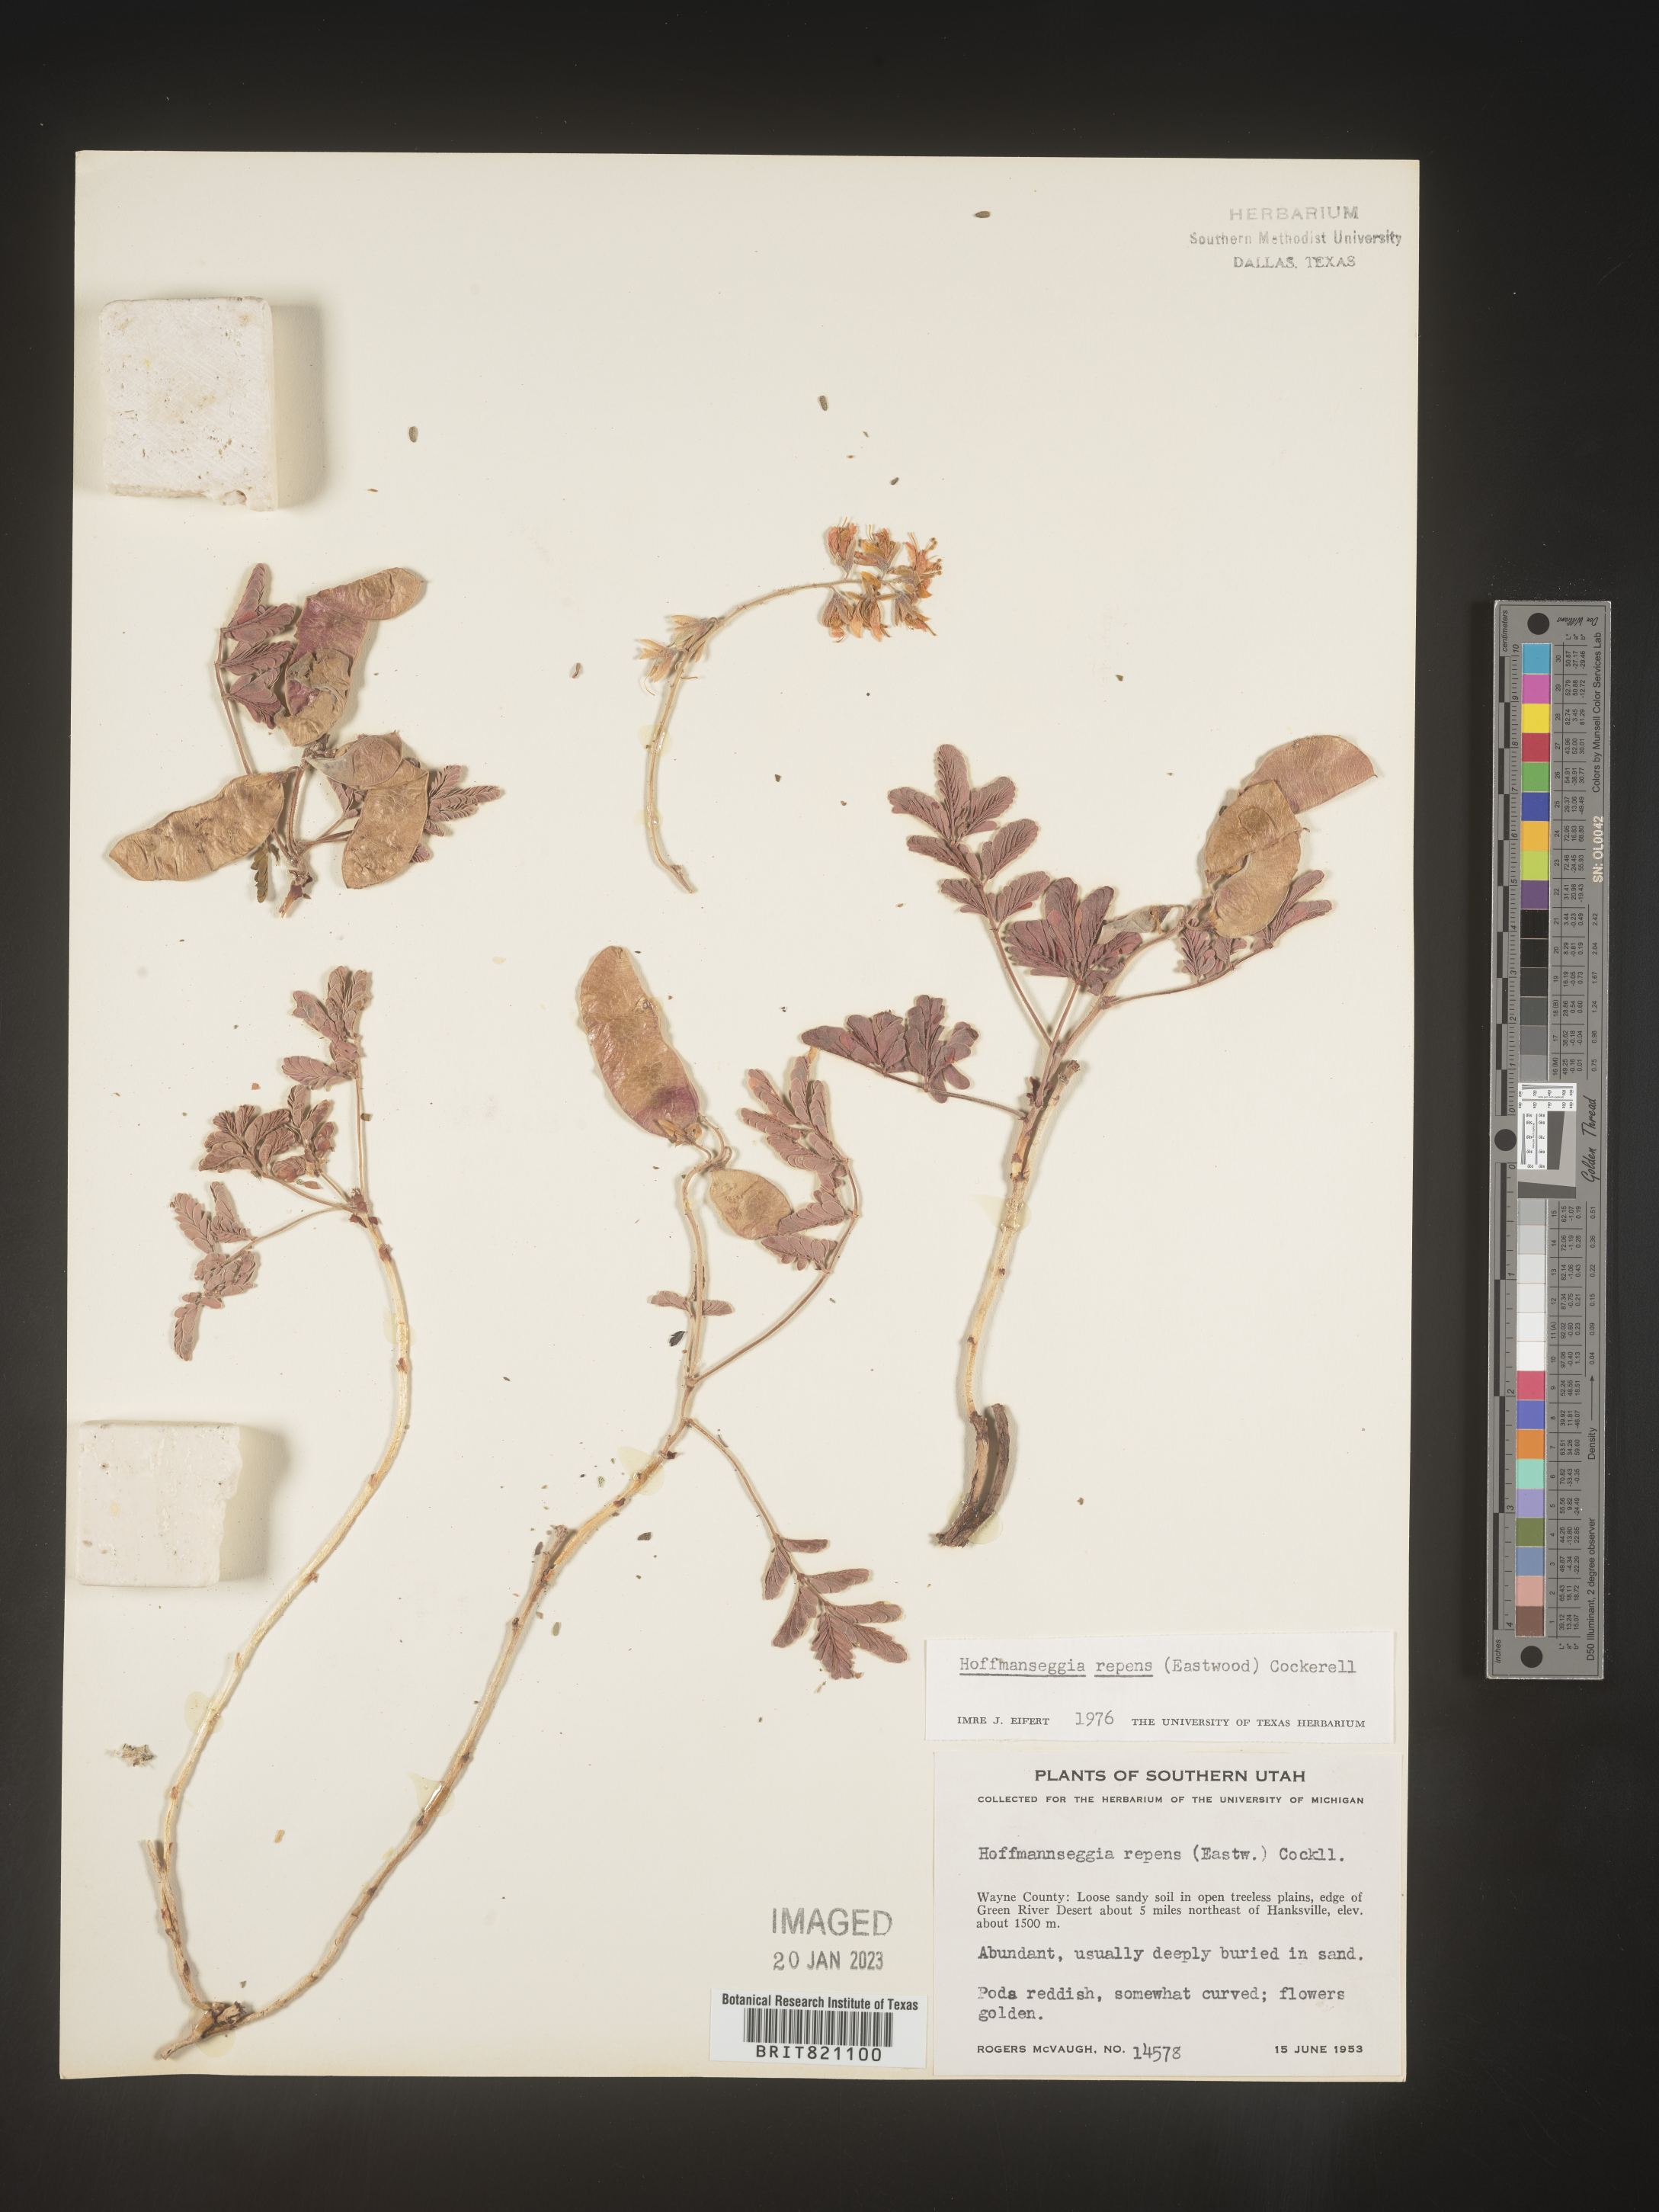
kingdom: Plantae
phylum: Tracheophyta
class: Magnoliopsida
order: Fabales
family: Fabaceae
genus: Hoffmannseggia
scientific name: Hoffmannseggia
